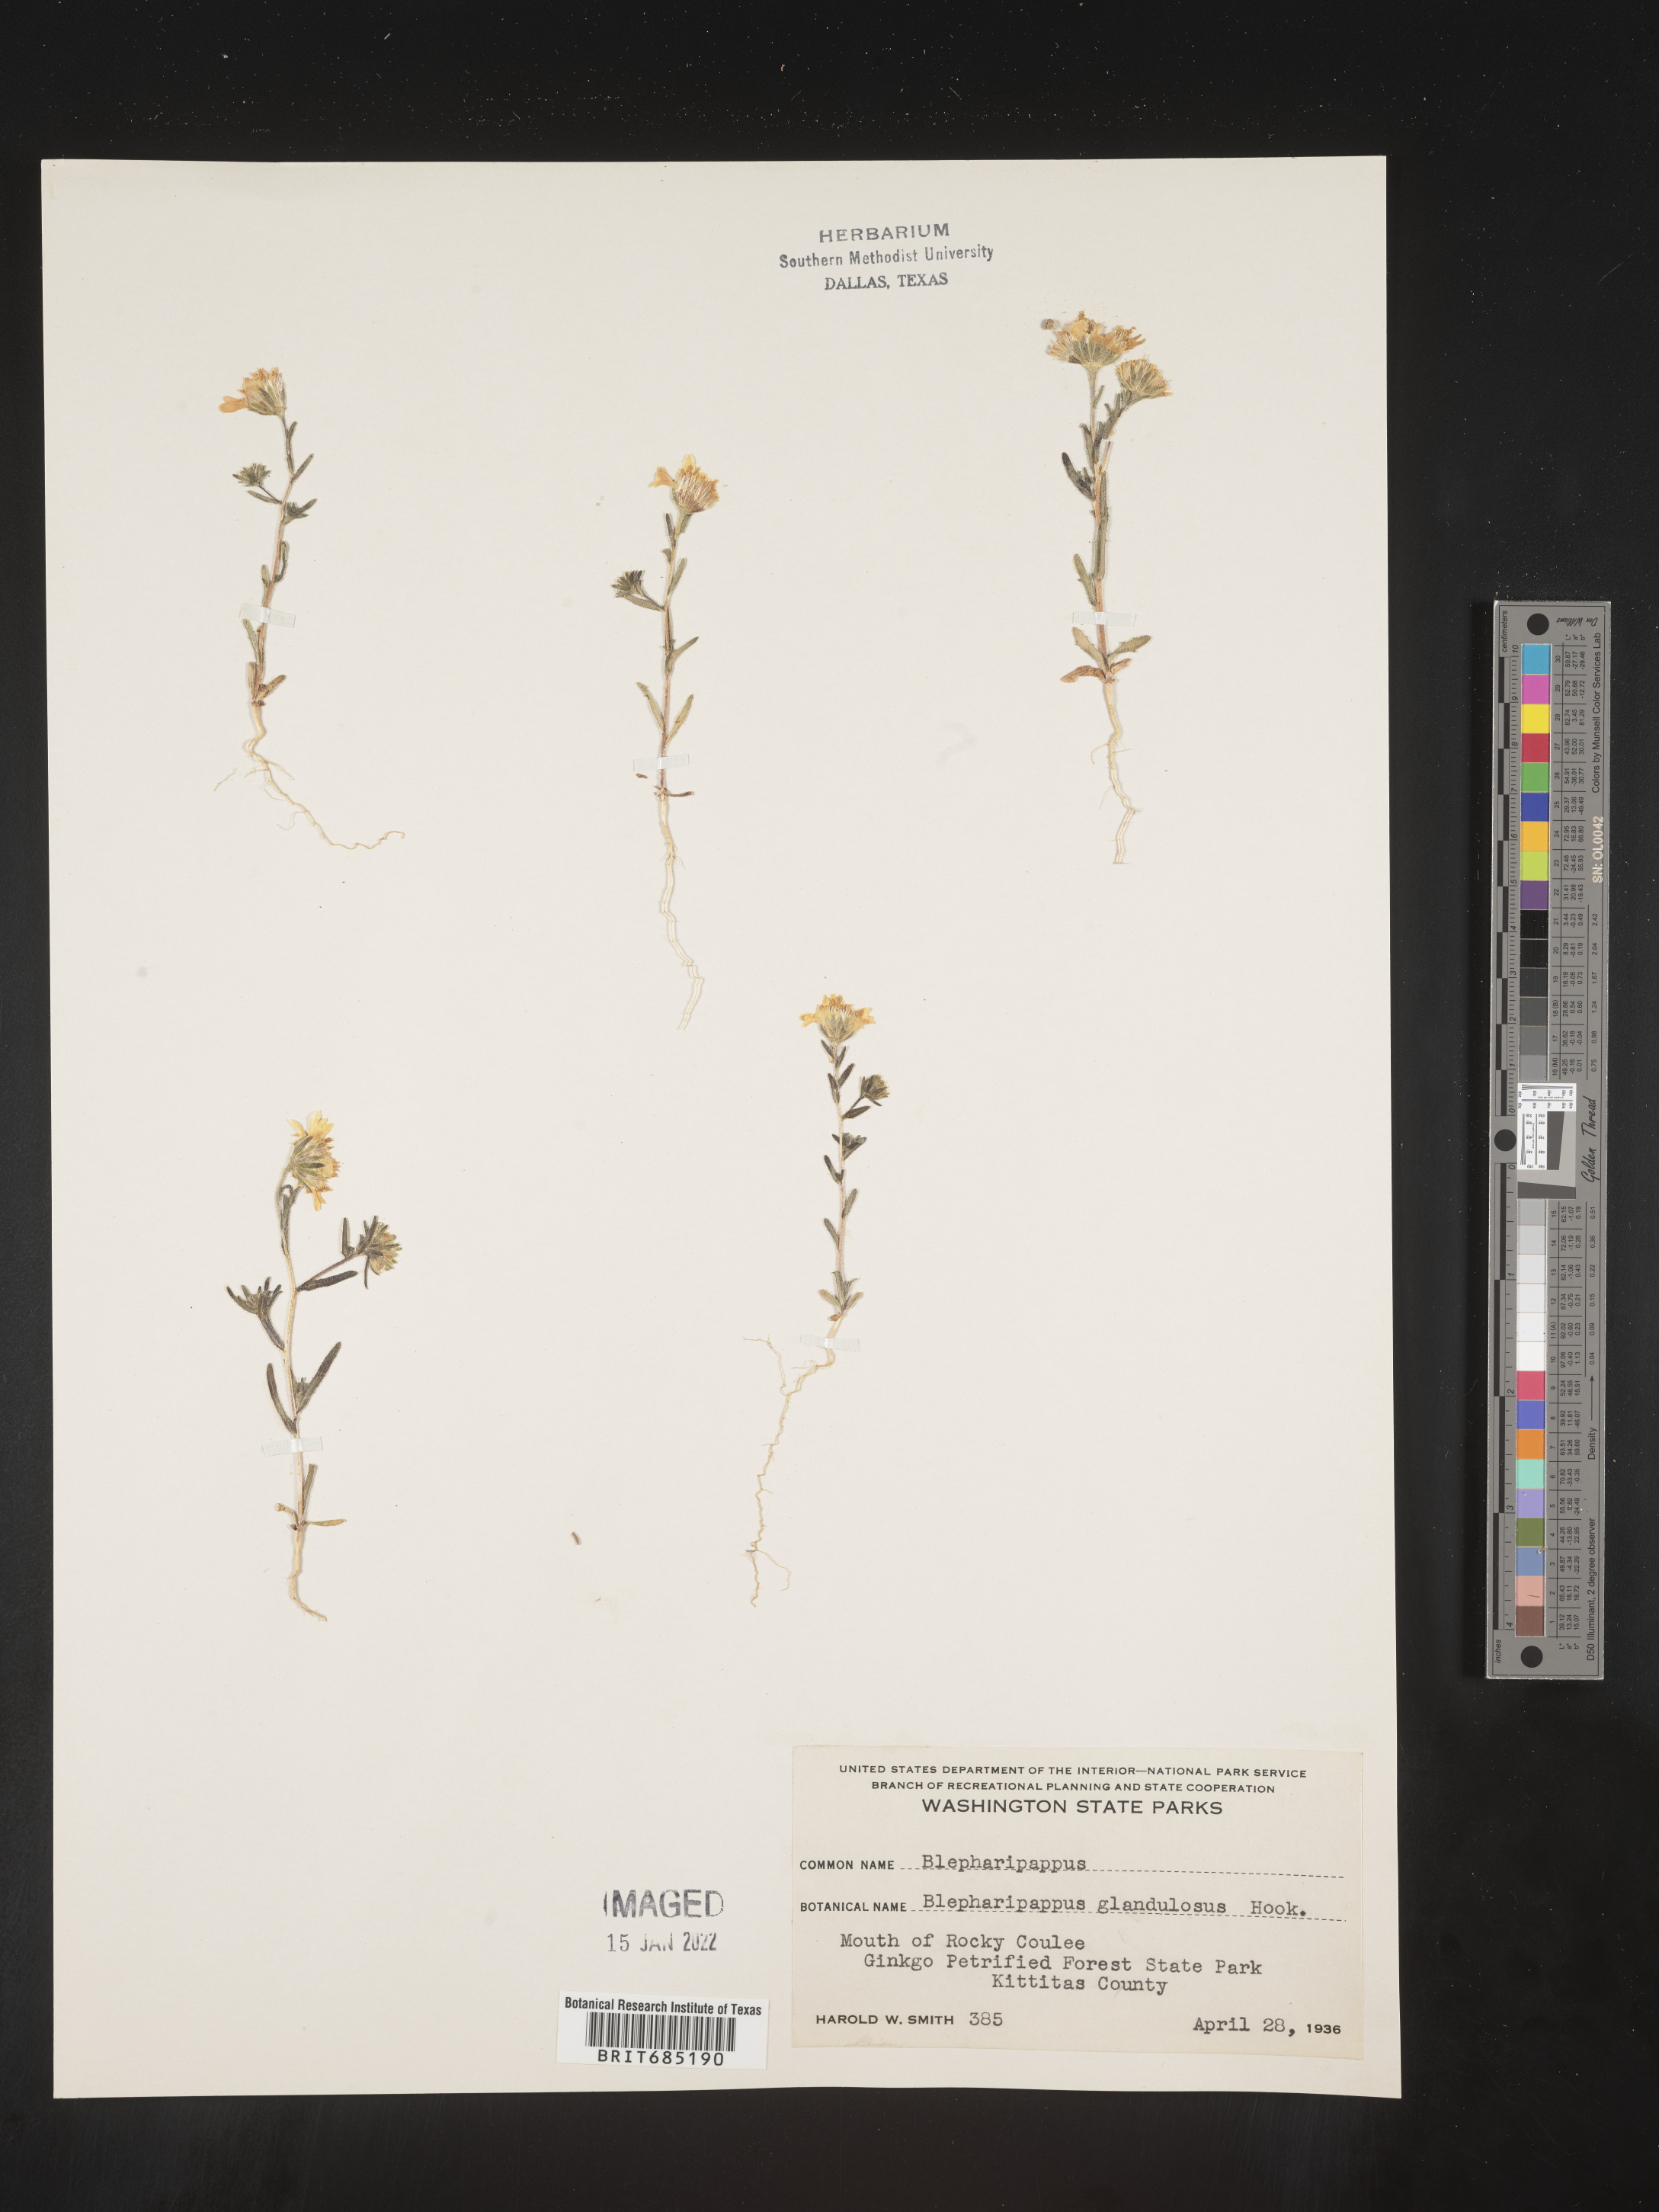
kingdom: Plantae
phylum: Tracheophyta
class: Magnoliopsida
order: Asterales
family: Asteraceae
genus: Blepharipappus
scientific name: Blepharipappus
